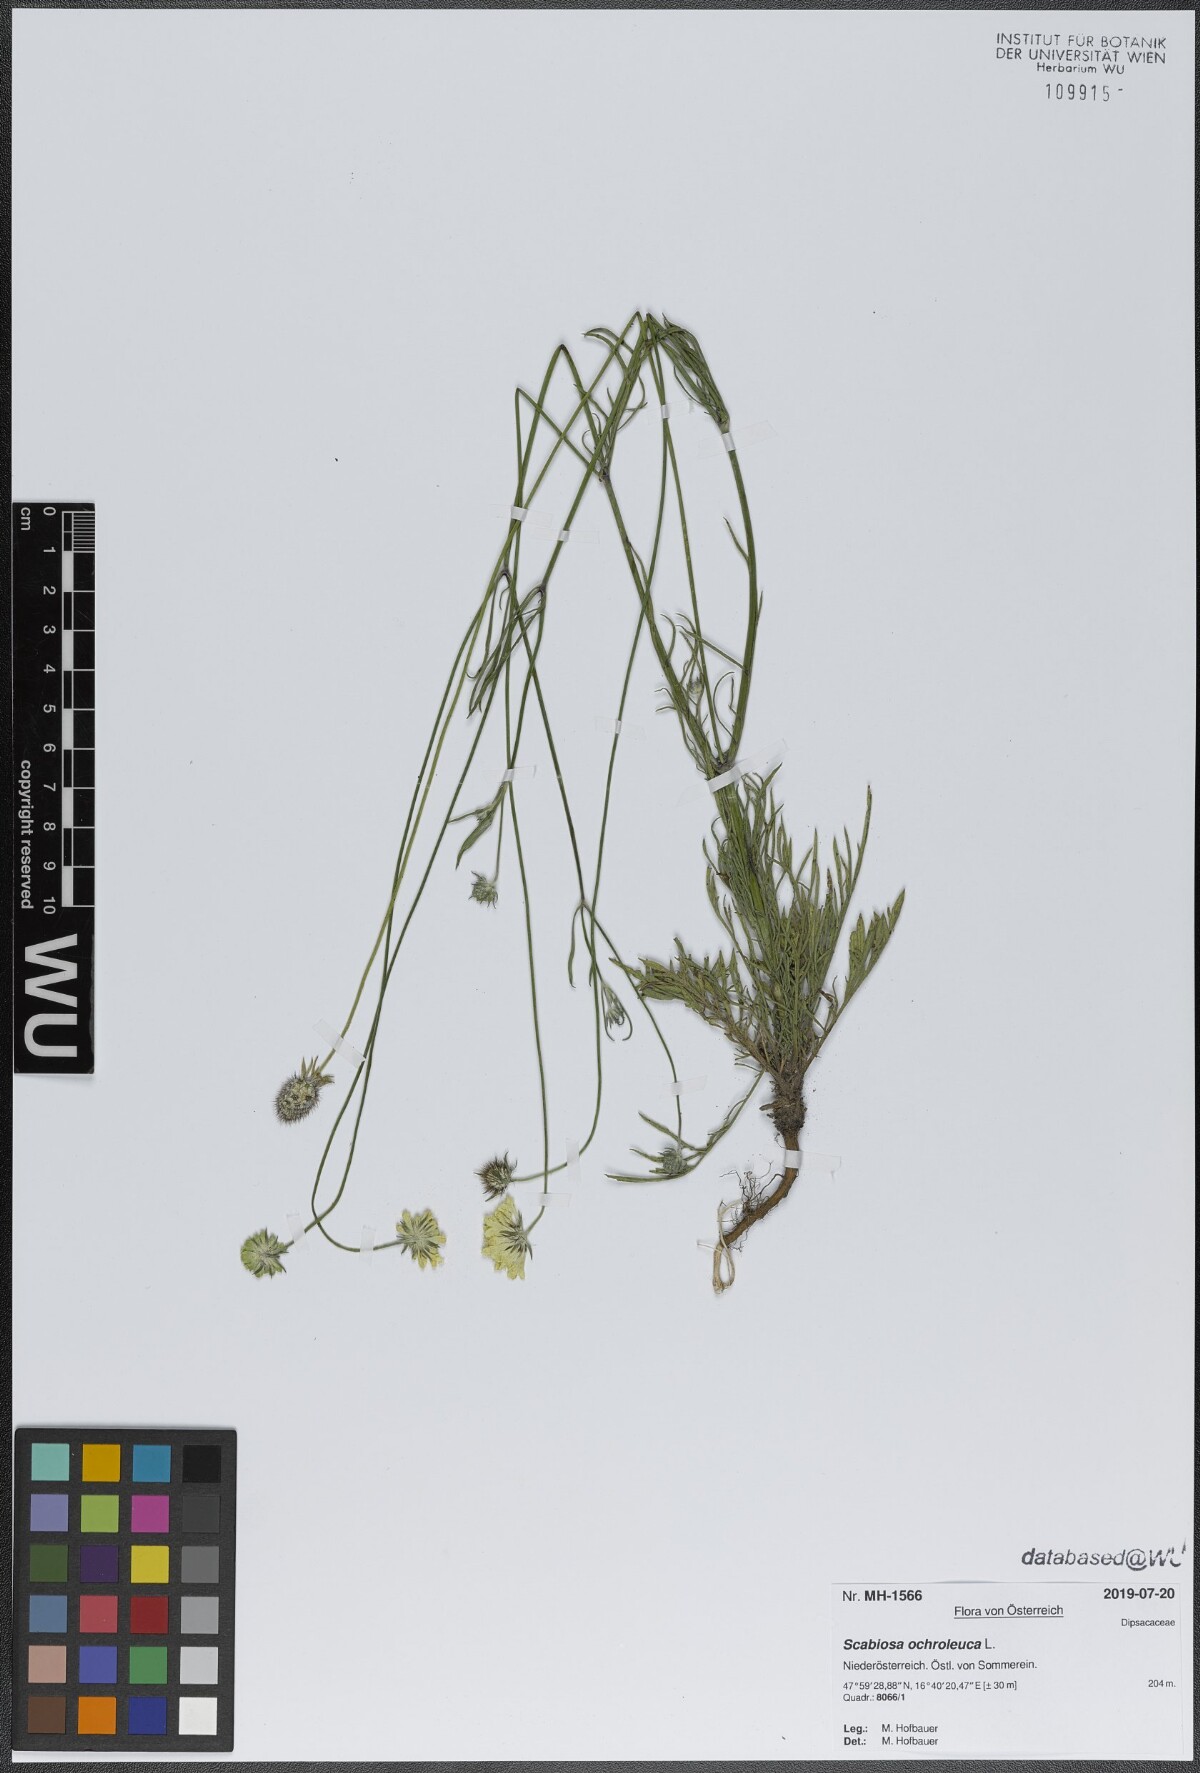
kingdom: Plantae
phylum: Tracheophyta
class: Magnoliopsida
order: Dipsacales
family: Caprifoliaceae
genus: Scabiosa
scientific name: Scabiosa ochroleuca
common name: Cream pincushions
